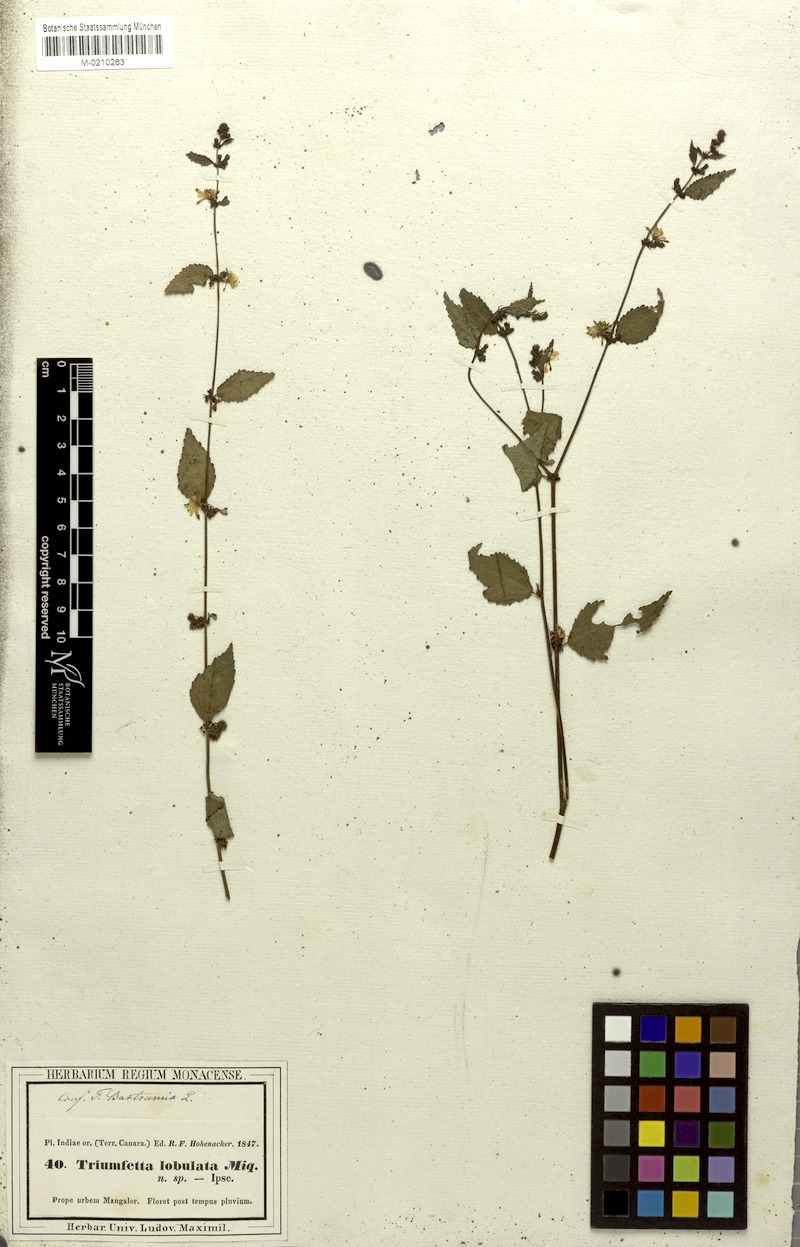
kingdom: Plantae
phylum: Tracheophyta
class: Magnoliopsida
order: Malvales
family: Malvaceae
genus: Triumfetta
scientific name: Triumfetta rhomboidea
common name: Diamond burbark
